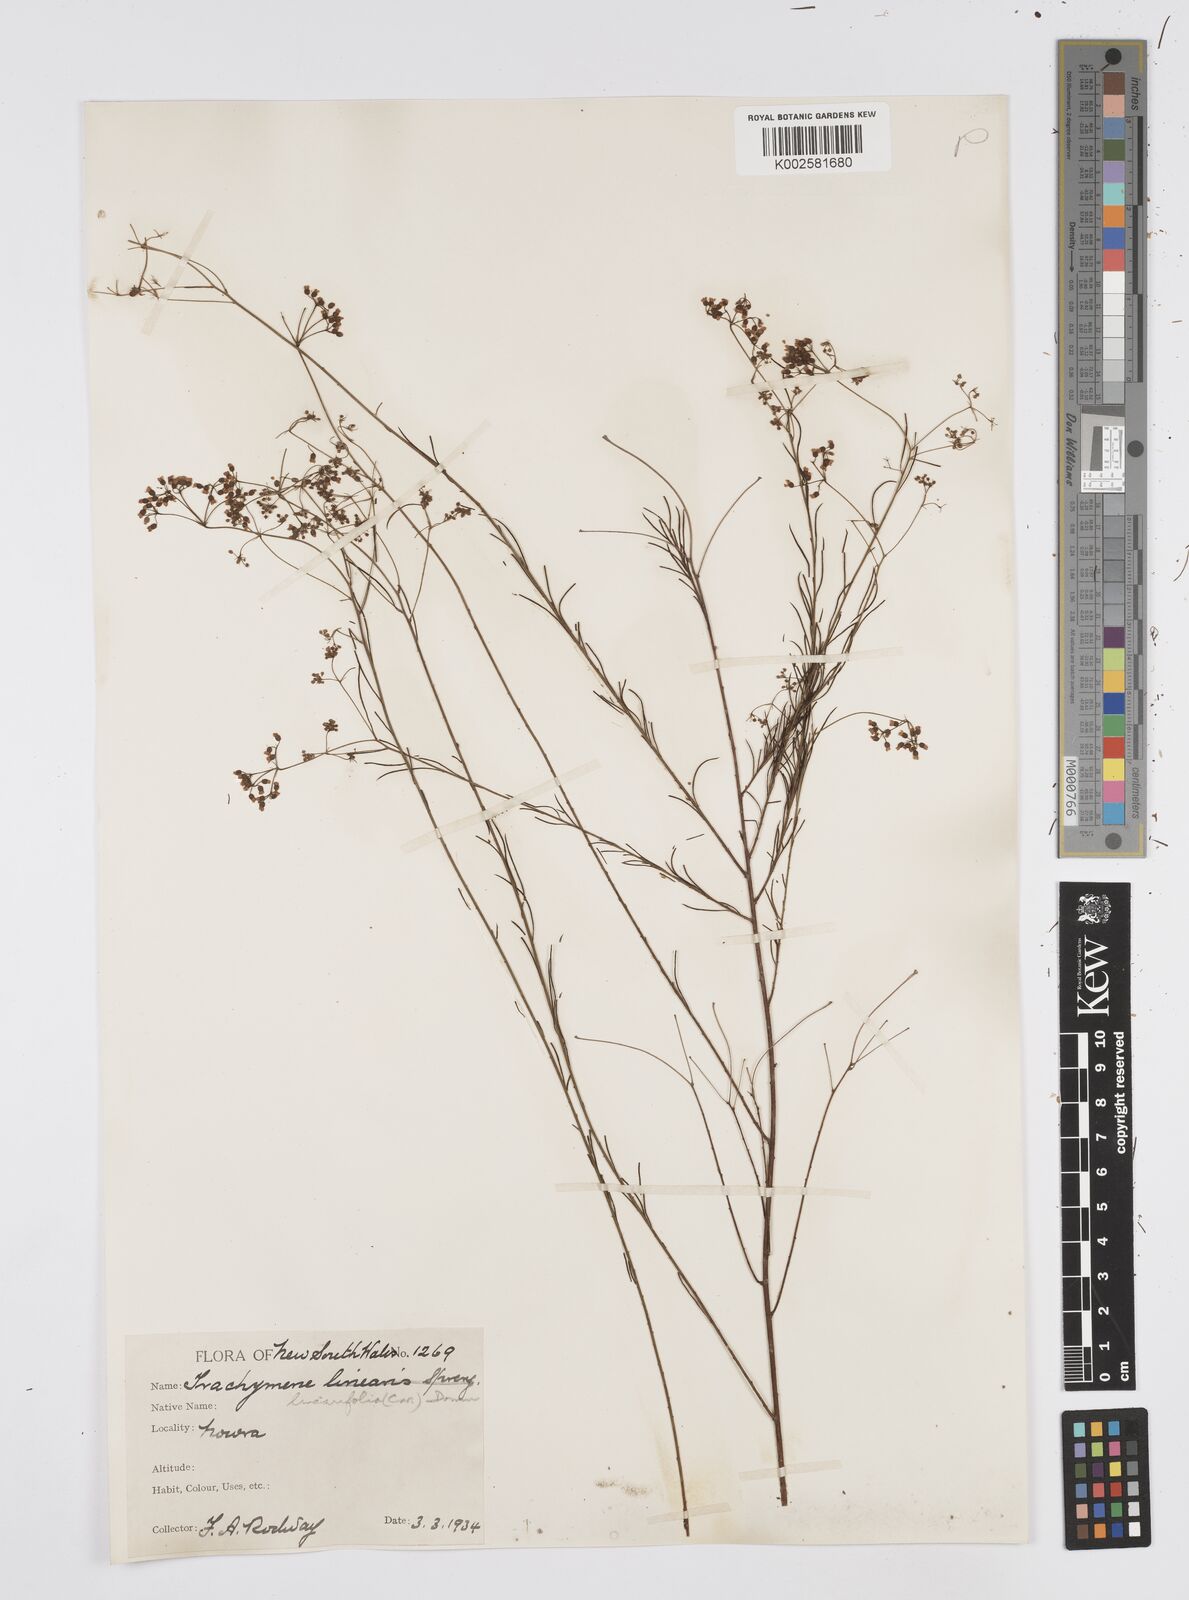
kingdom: Plantae
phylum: Tracheophyta
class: Magnoliopsida
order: Apiales
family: Apiaceae
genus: Platysace
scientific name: Platysace linearifolia
